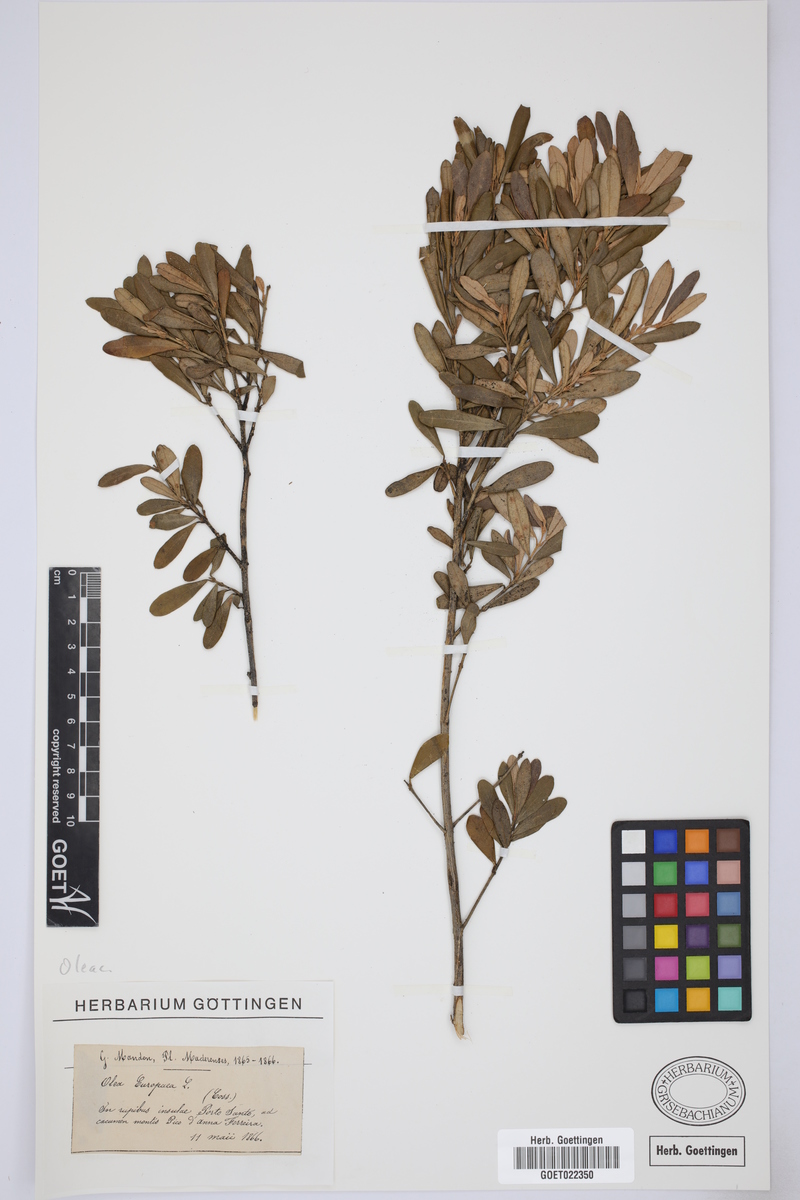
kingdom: Plantae
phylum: Tracheophyta
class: Magnoliopsida
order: Lamiales
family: Oleaceae
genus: Olea
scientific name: Olea europaea
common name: Olive
